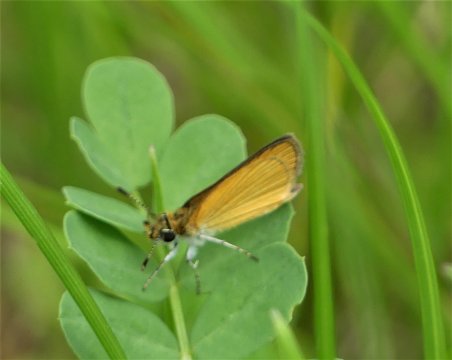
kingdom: Animalia
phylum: Arthropoda
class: Insecta
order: Lepidoptera
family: Hesperiidae
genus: Ancyloxypha
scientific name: Ancyloxypha numitor
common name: Least Skipper
